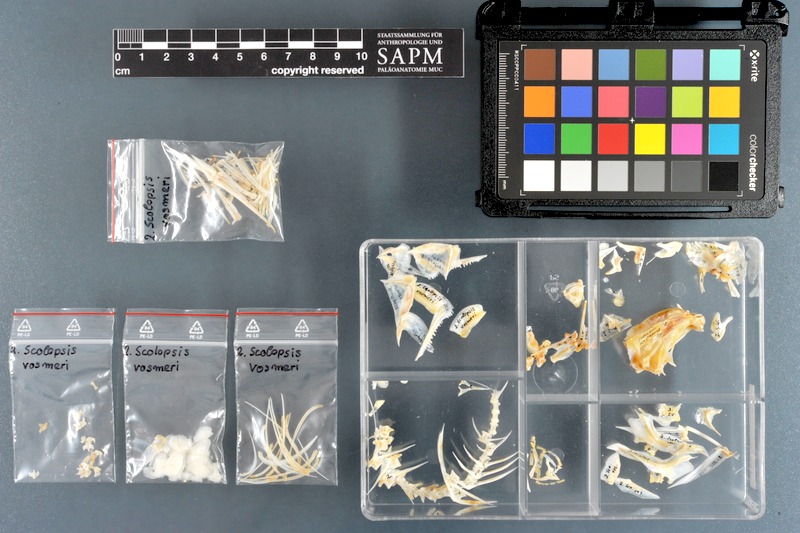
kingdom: Animalia
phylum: Chordata
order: Perciformes
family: Nemipteridae
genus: Scolopsis
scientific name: Scolopsis vosmeri
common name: Whitecheek monocle bream
